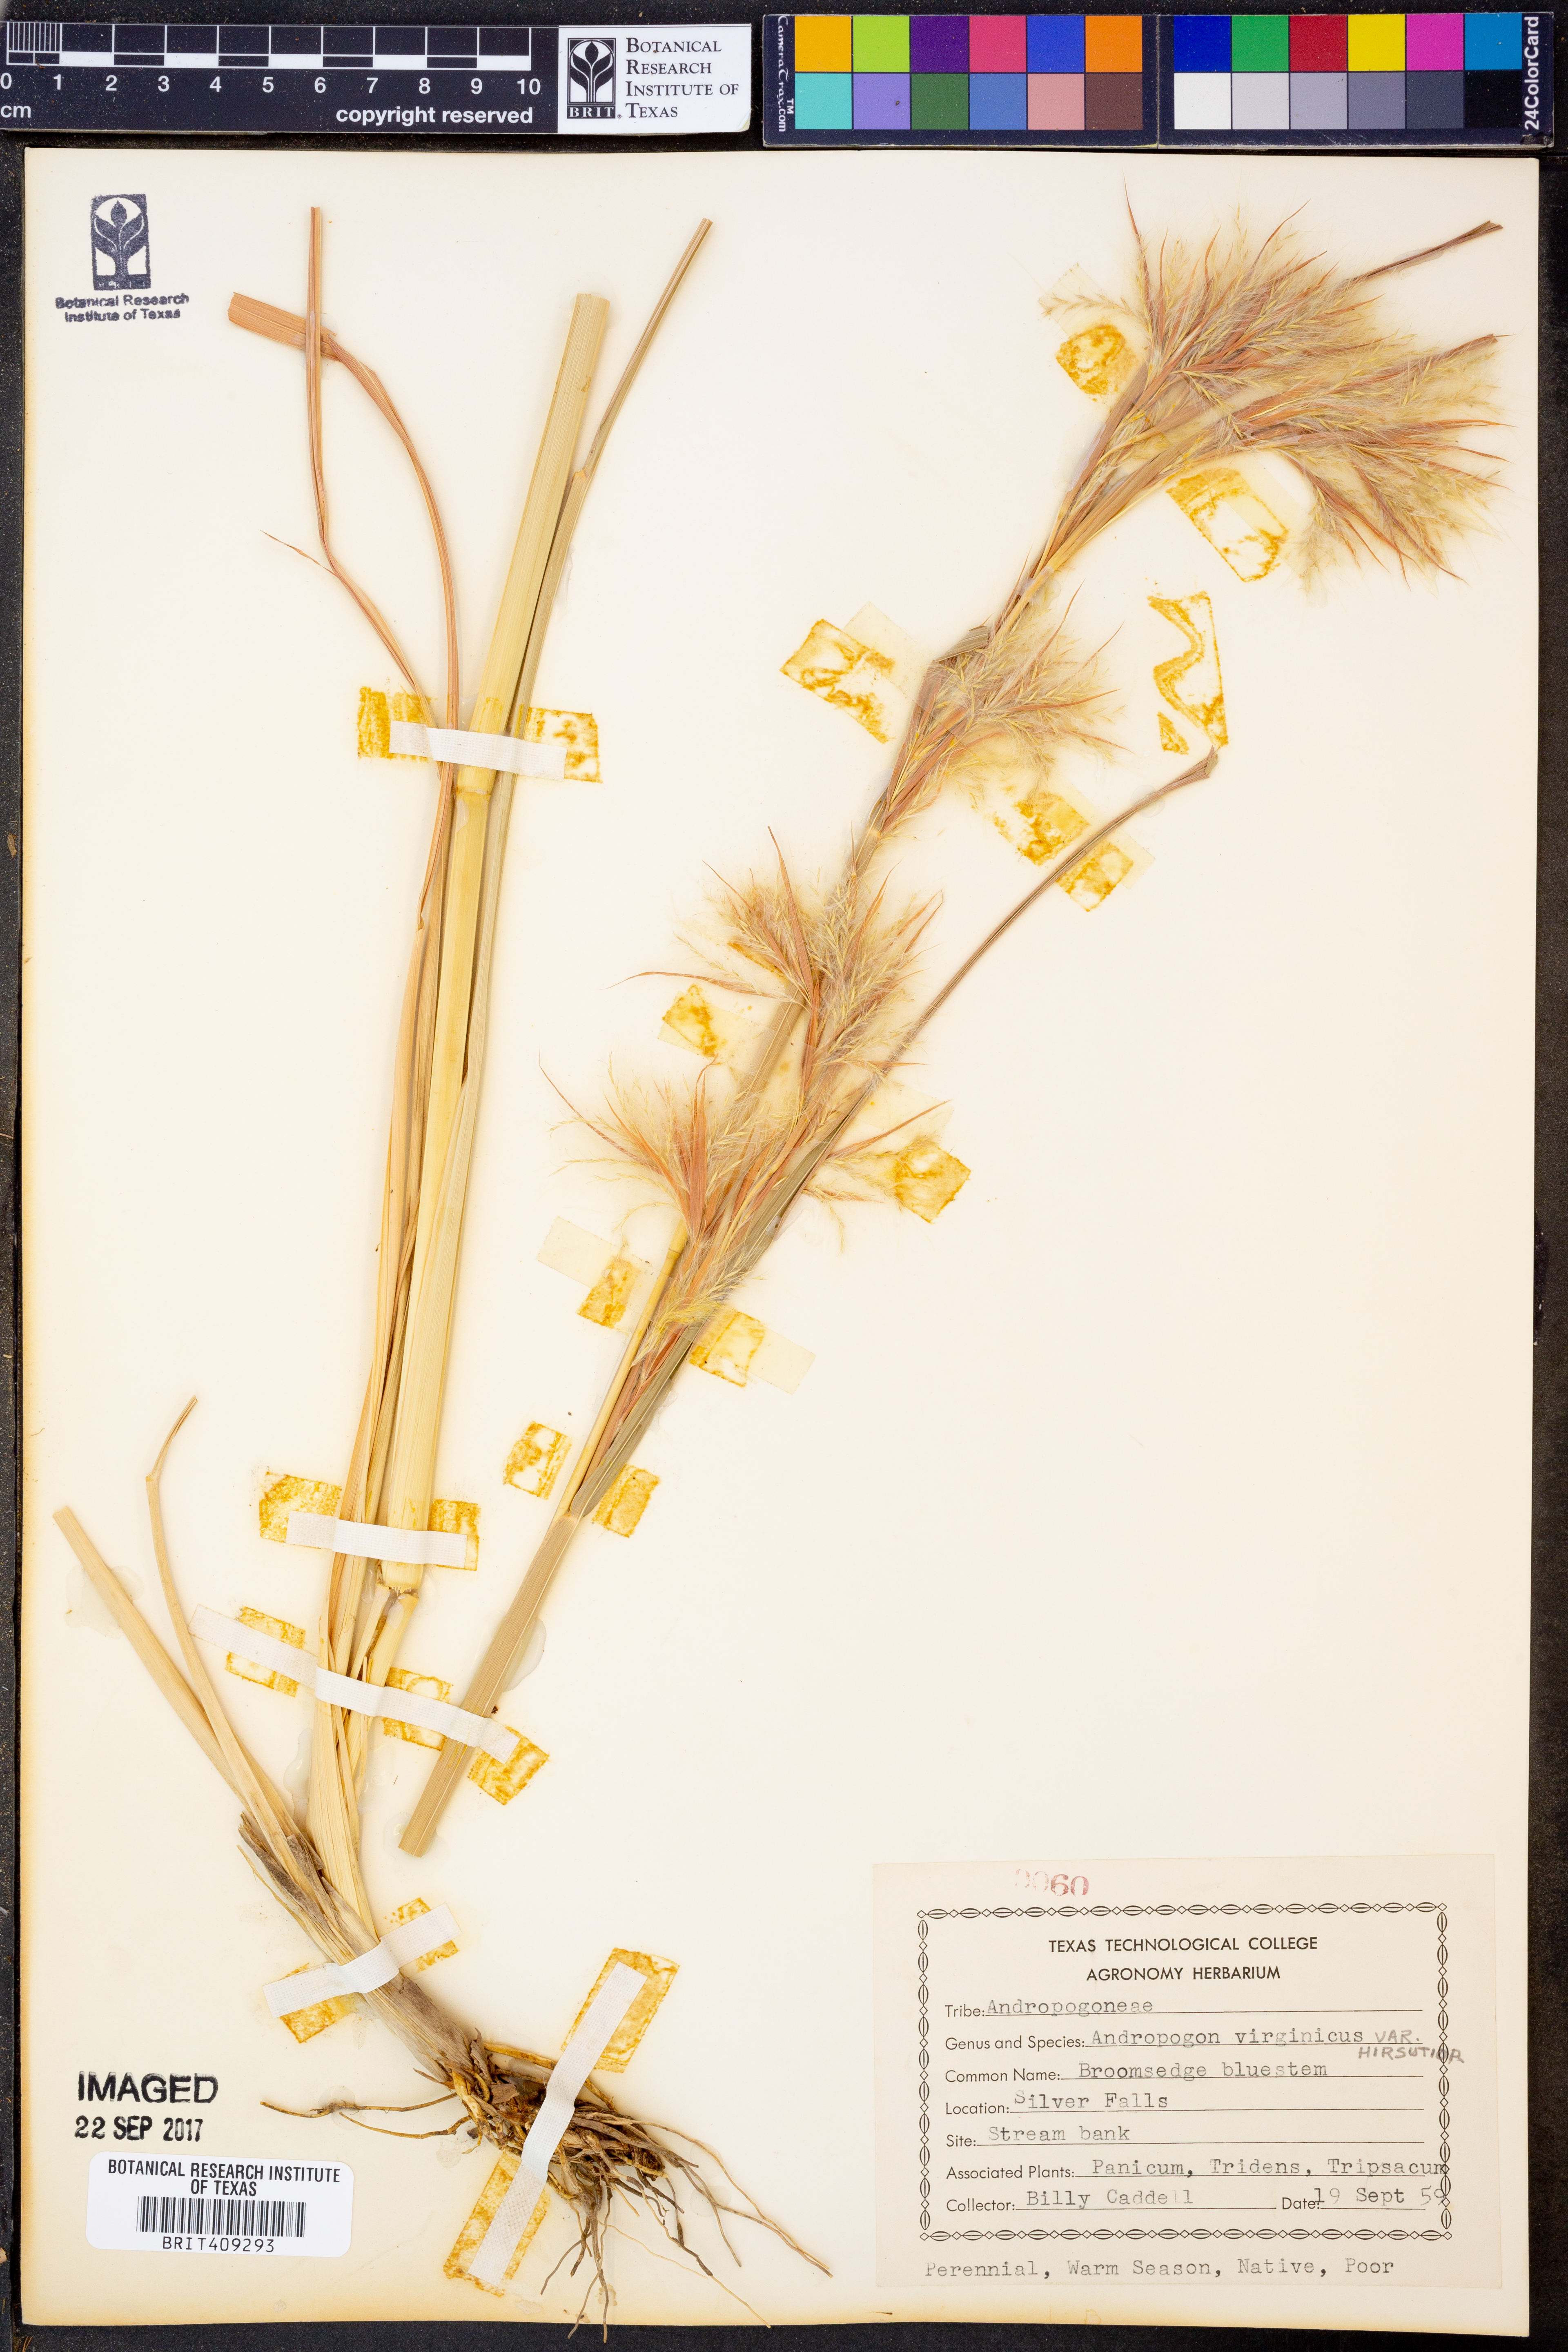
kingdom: Plantae
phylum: Tracheophyta
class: Liliopsida
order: Poales
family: Poaceae
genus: Andropogon
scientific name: Andropogon hirsutior
